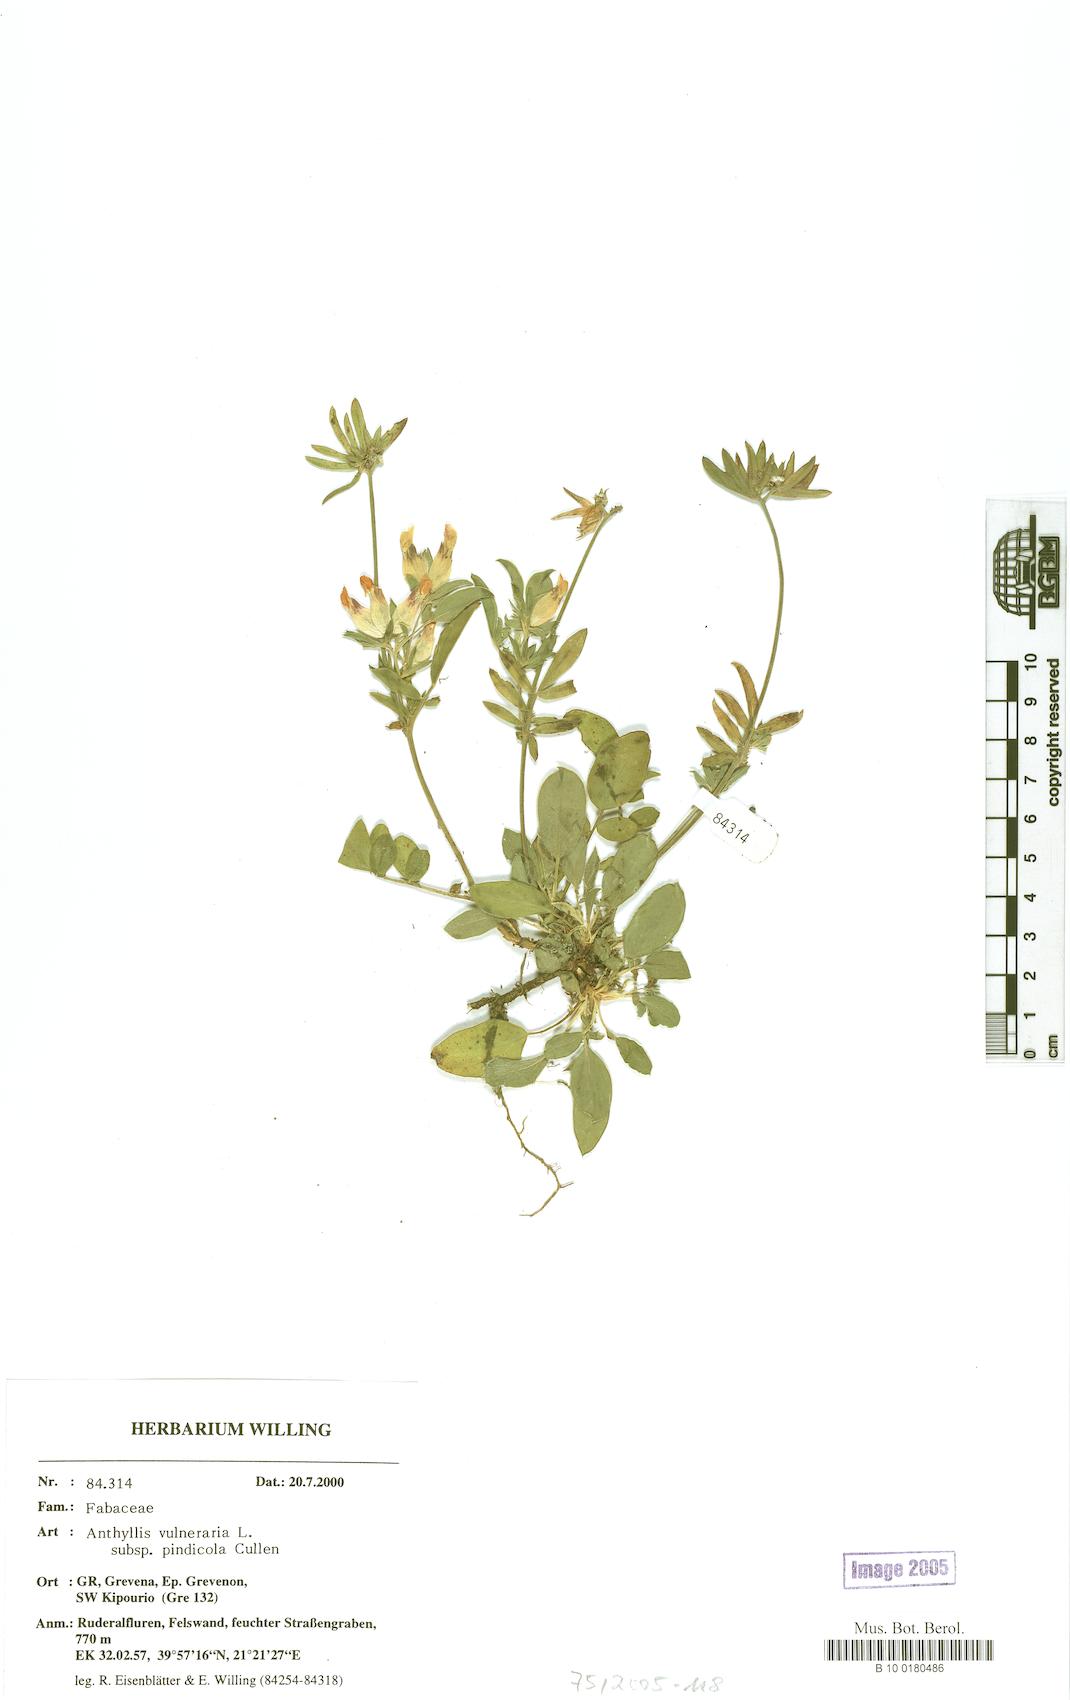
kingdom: Plantae
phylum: Tracheophyta
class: Magnoliopsida
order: Fabales
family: Fabaceae
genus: Anthyllis
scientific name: Anthyllis vulneraria
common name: Kidney vetch
